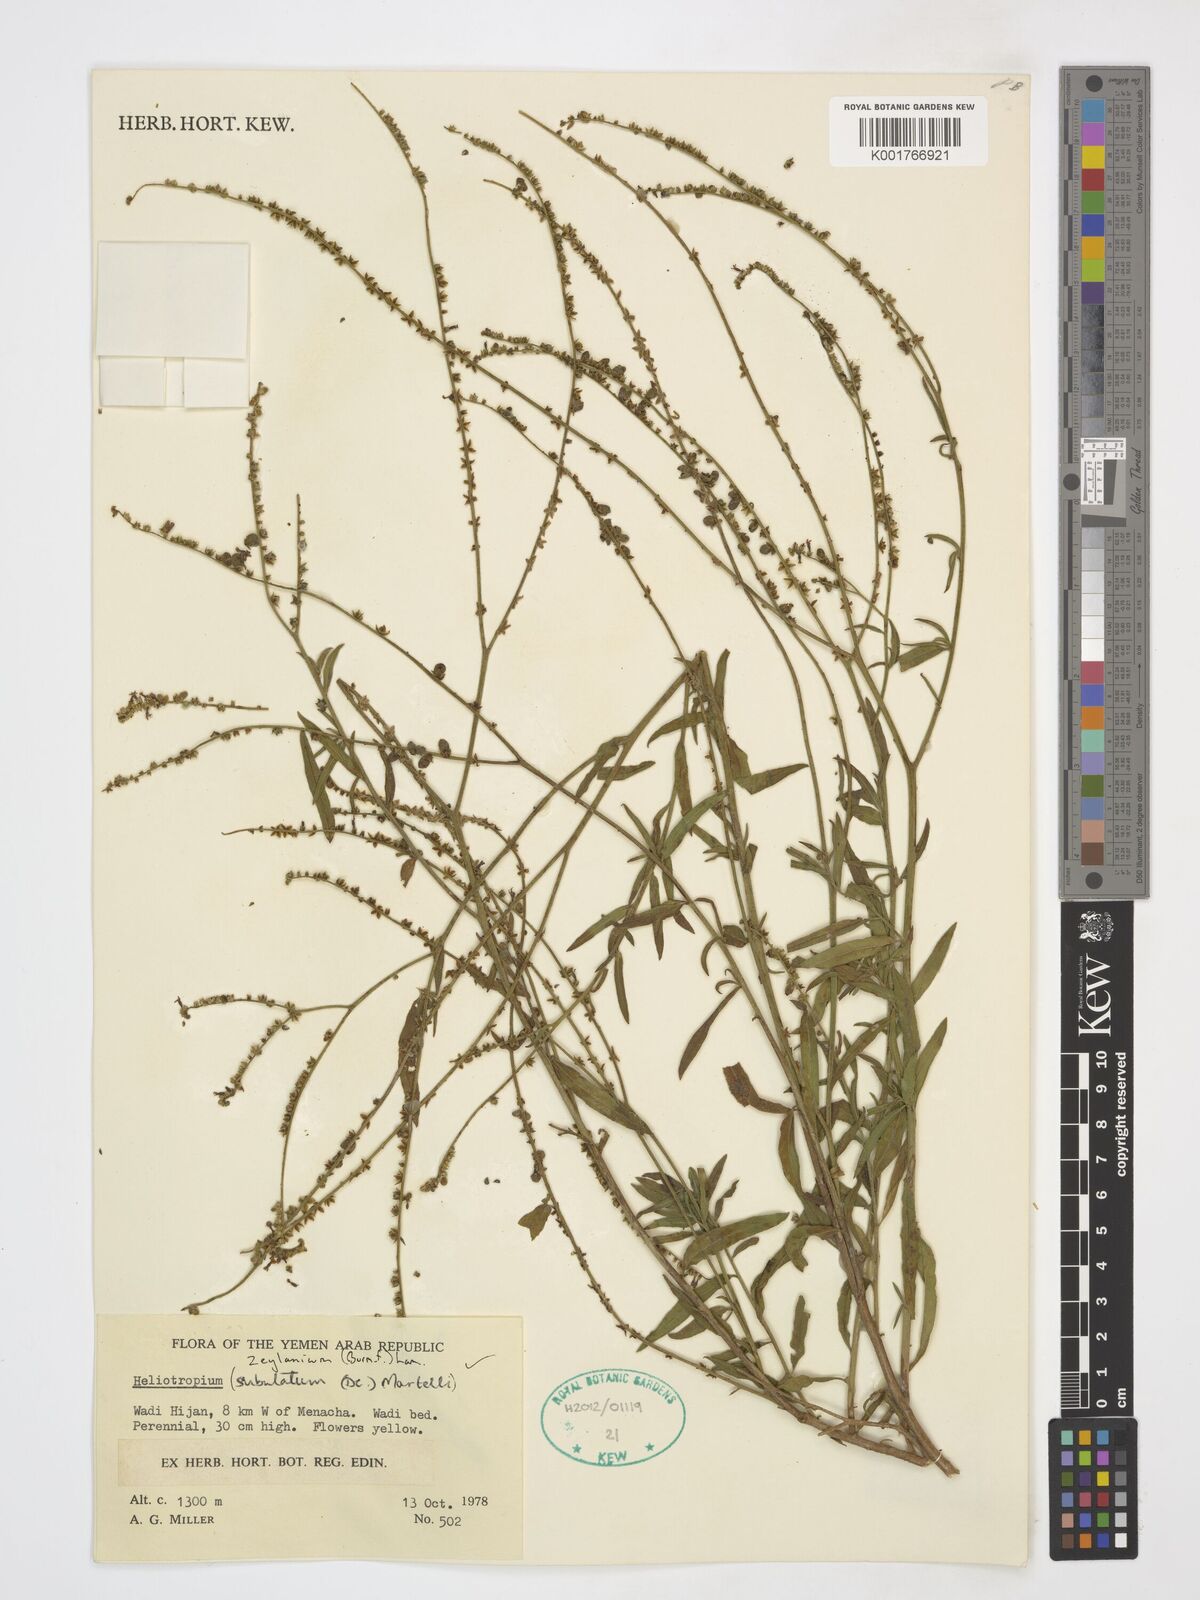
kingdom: Plantae
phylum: Tracheophyta
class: Magnoliopsida
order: Boraginales
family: Heliotropiaceae
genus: Heliotropium
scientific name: Heliotropium zeylanicum
